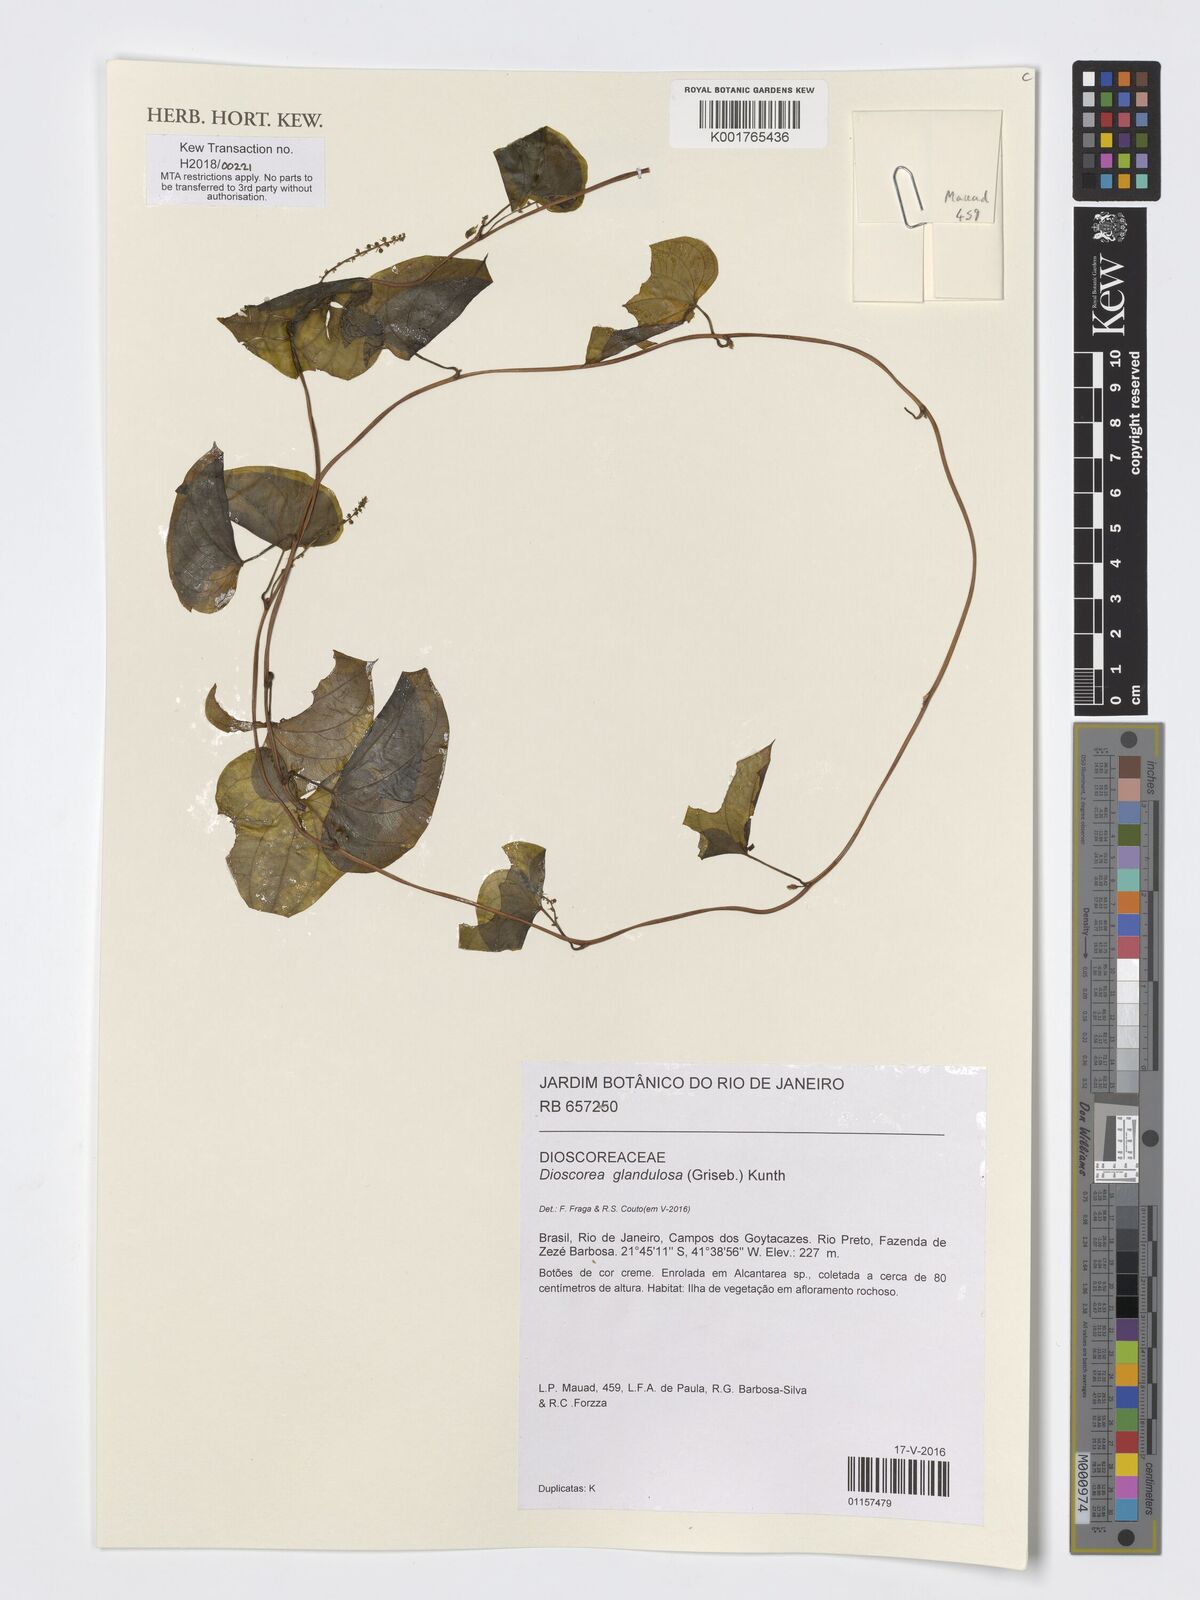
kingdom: Plantae
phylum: Tracheophyta
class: Liliopsida
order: Dioscoreales
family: Dioscoreaceae
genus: Dioscorea
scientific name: Dioscorea glandulosa
